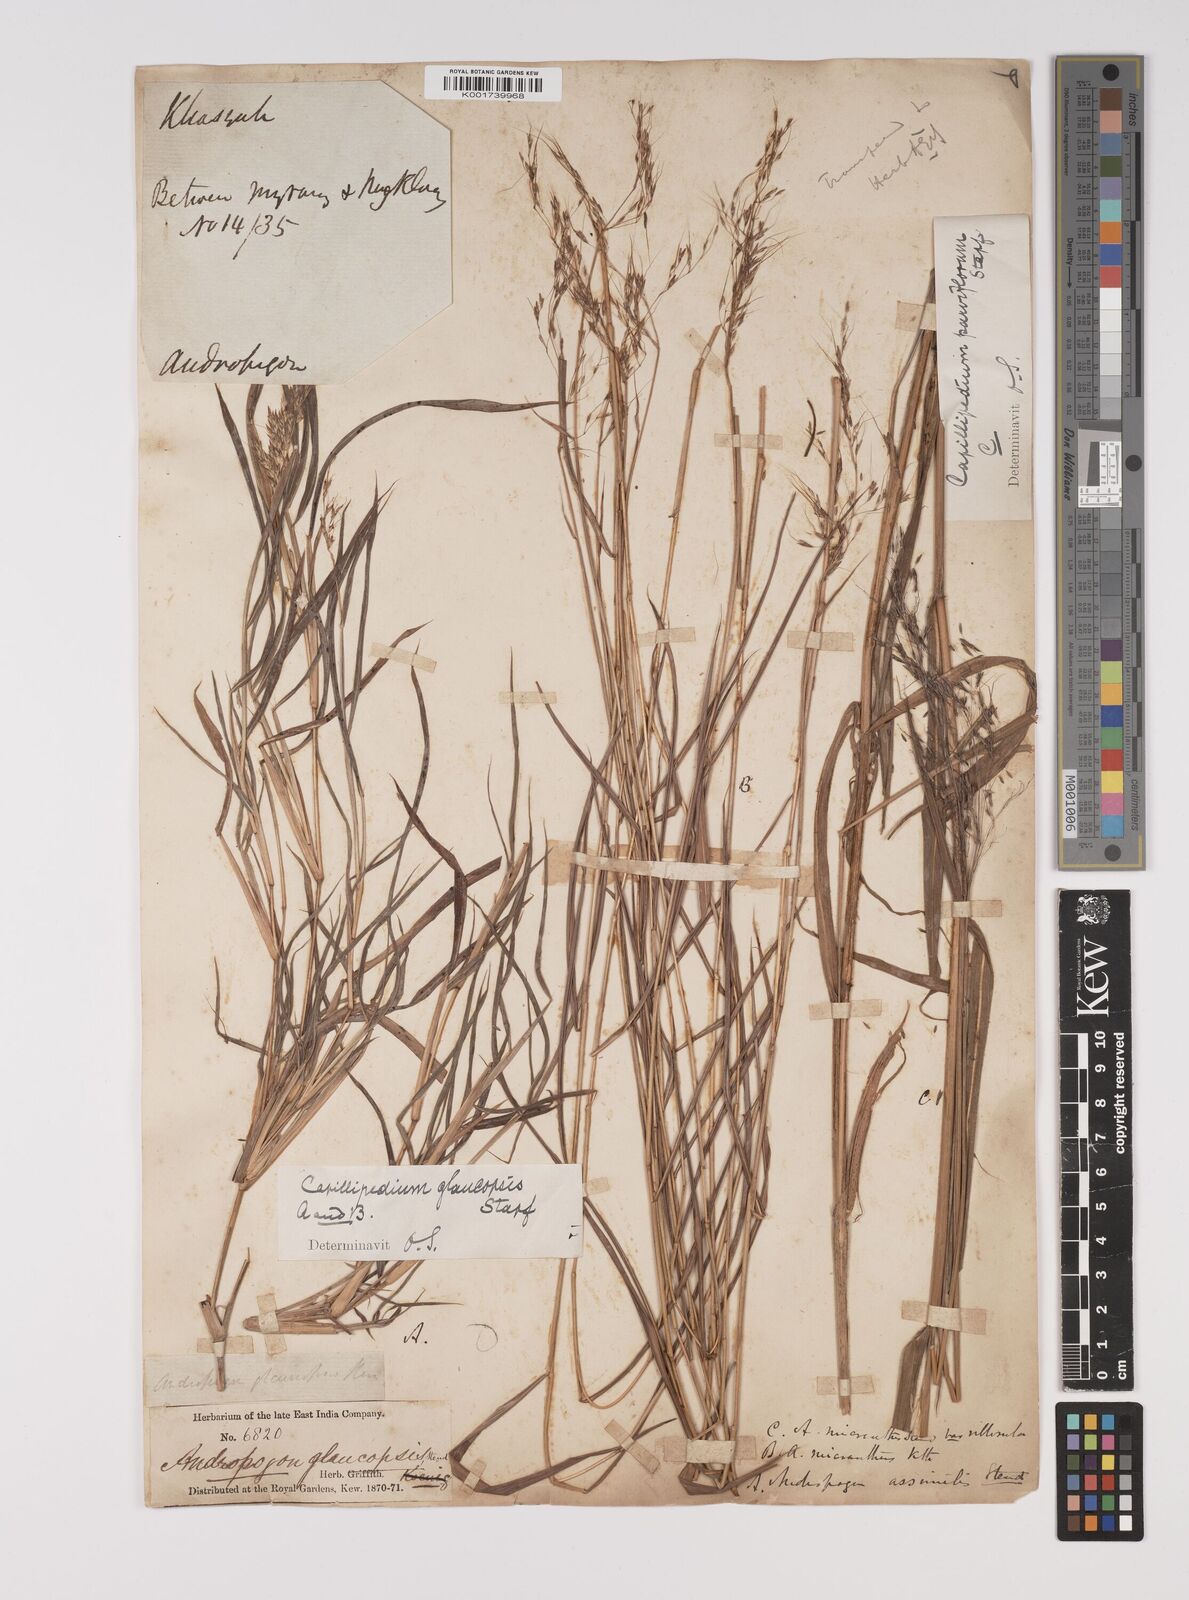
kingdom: Plantae
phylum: Tracheophyta
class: Liliopsida
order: Poales
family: Poaceae
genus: Capillipedium
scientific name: Capillipedium assimile
